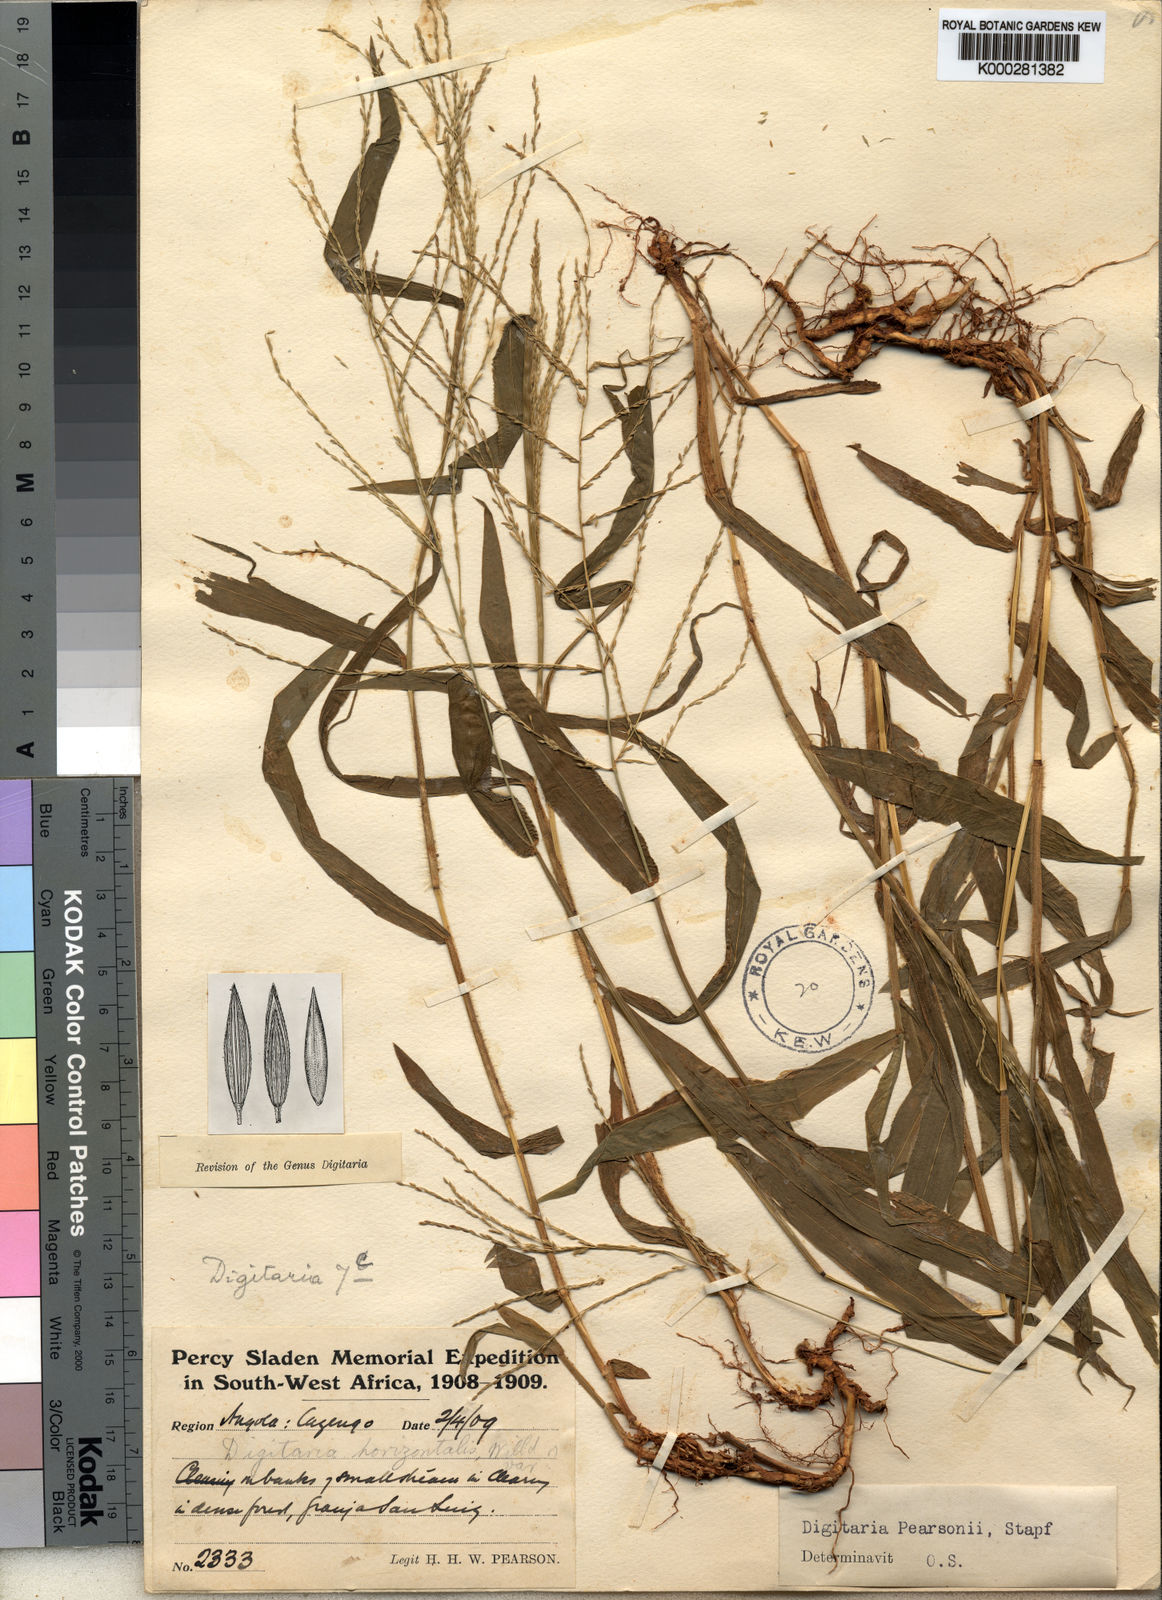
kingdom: Plantae
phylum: Tracheophyta
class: Liliopsida
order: Poales
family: Poaceae
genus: Digitaria
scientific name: Digitaria pearsonii
